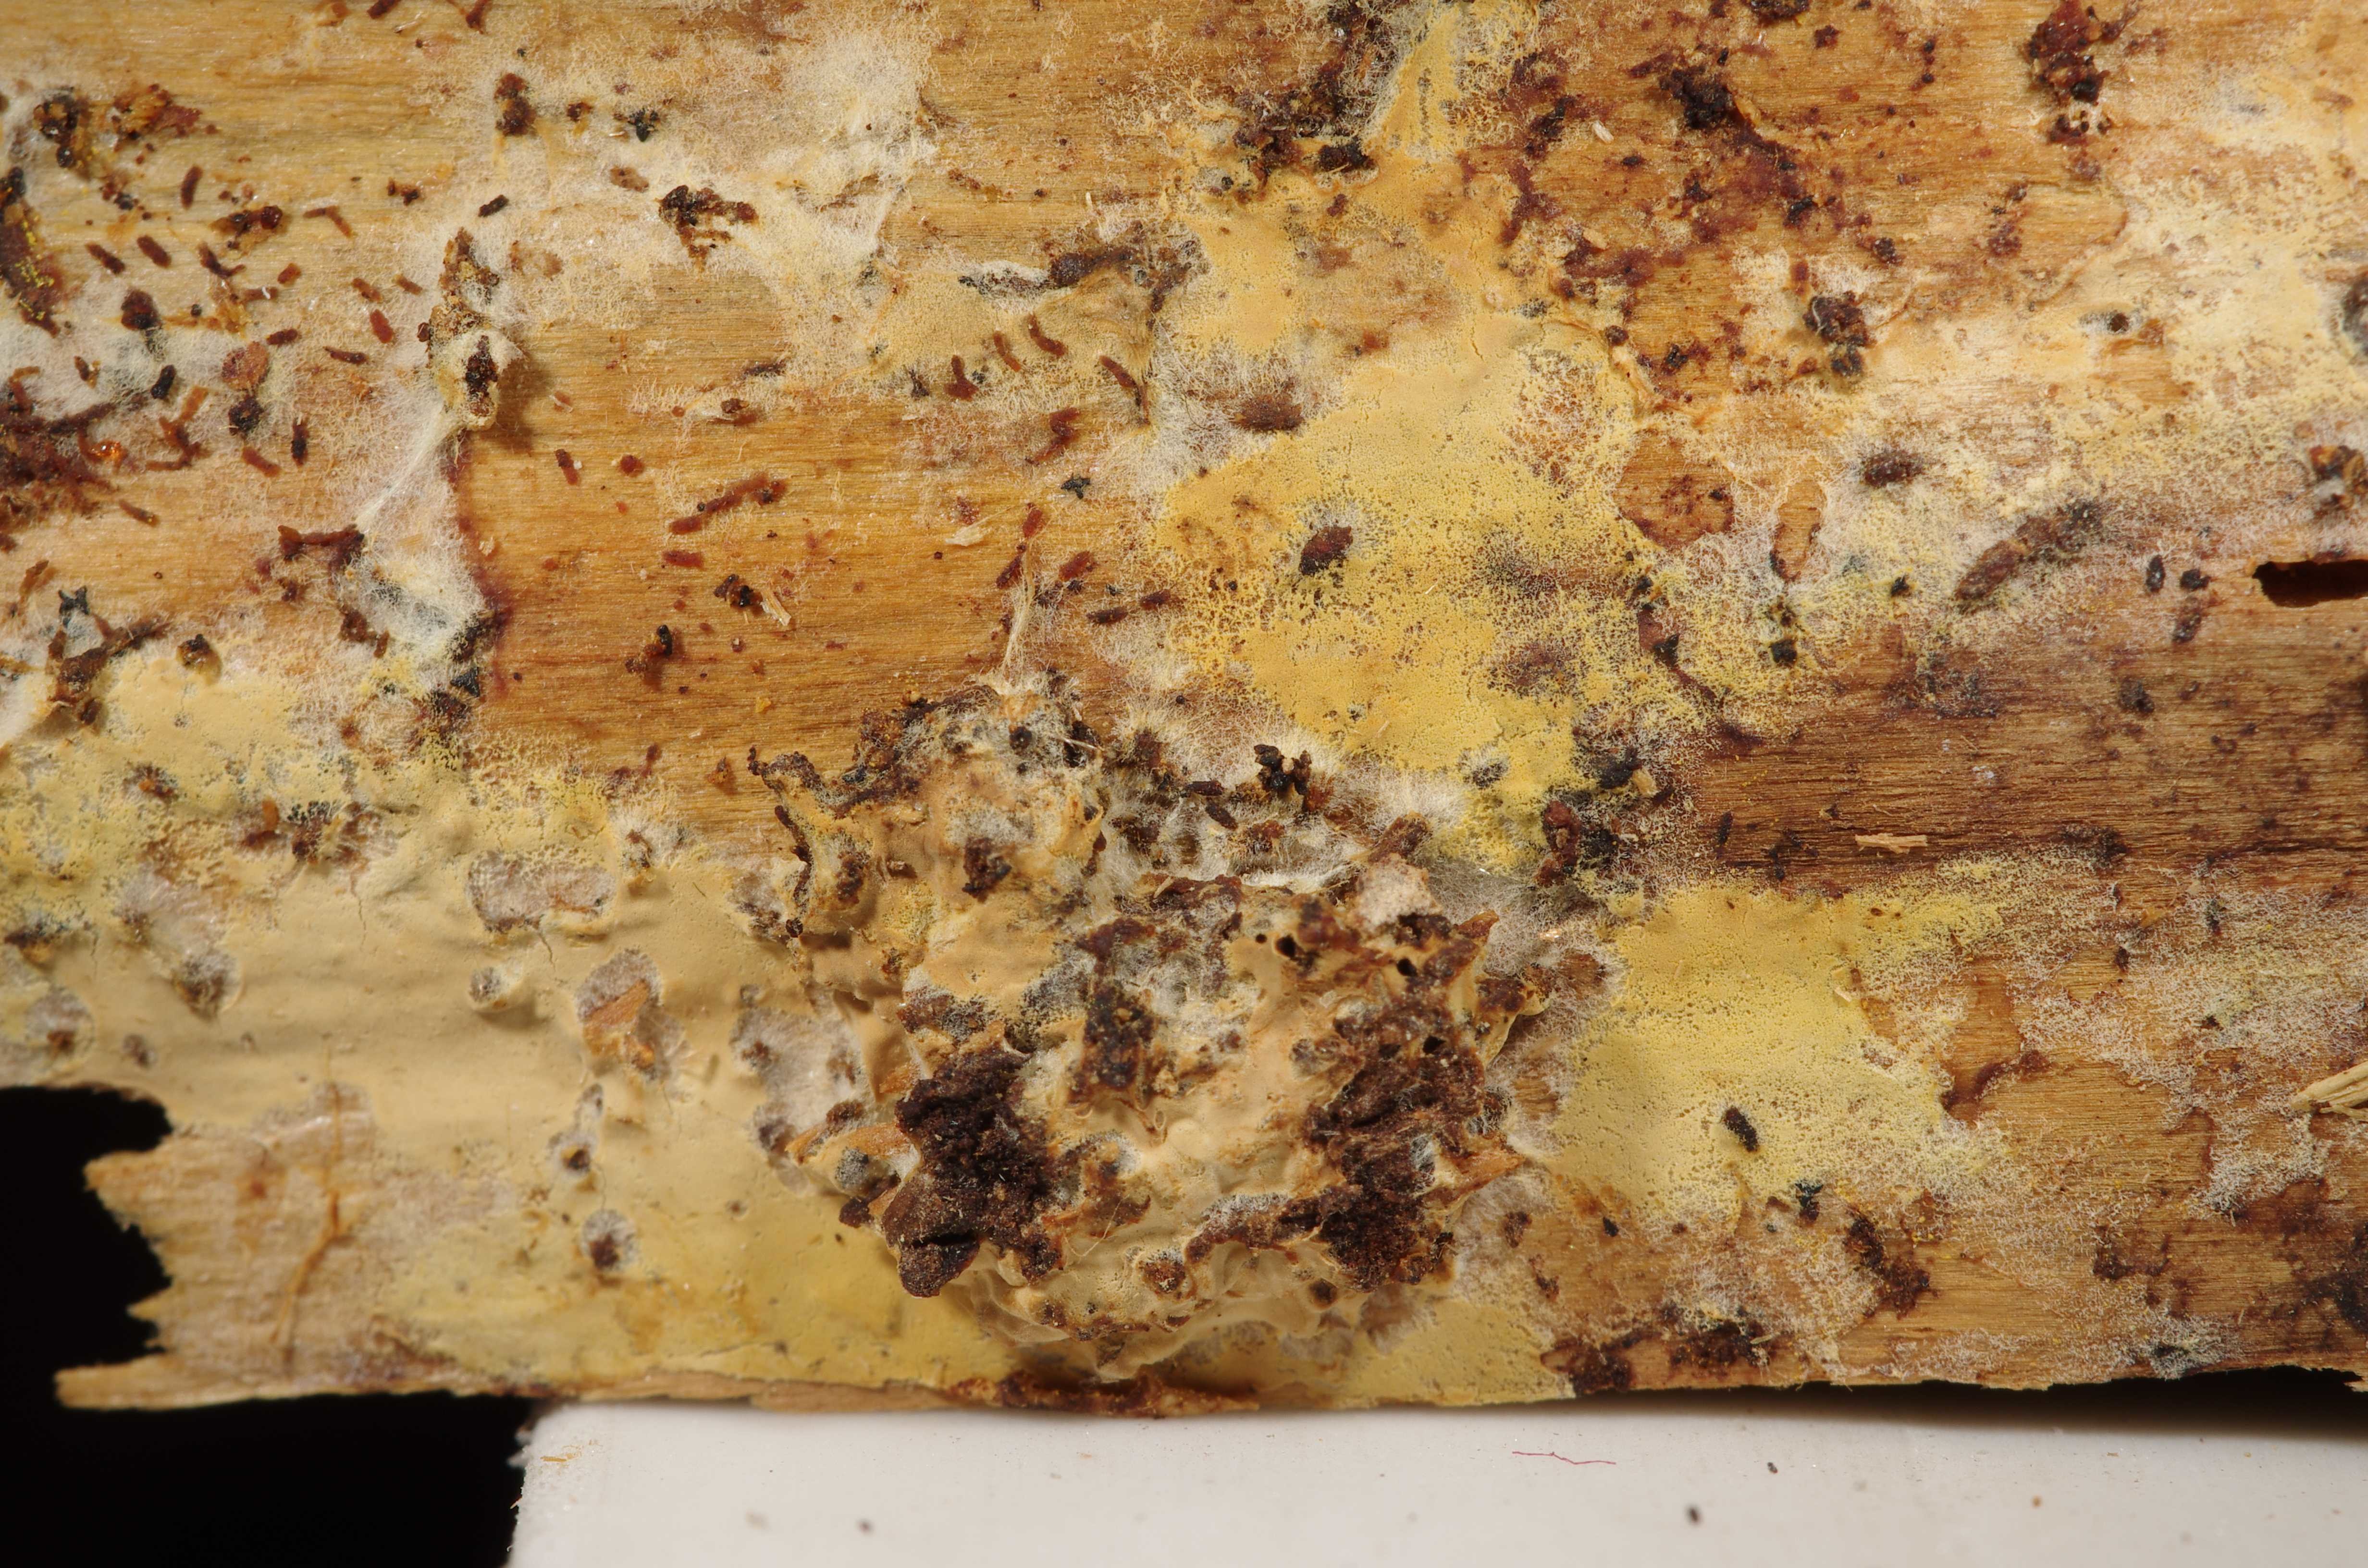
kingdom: Fungi
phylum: Basidiomycota
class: Agaricomycetes
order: Polyporales
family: Meruliaceae
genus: Phlebia
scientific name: Phlebia lilascens
